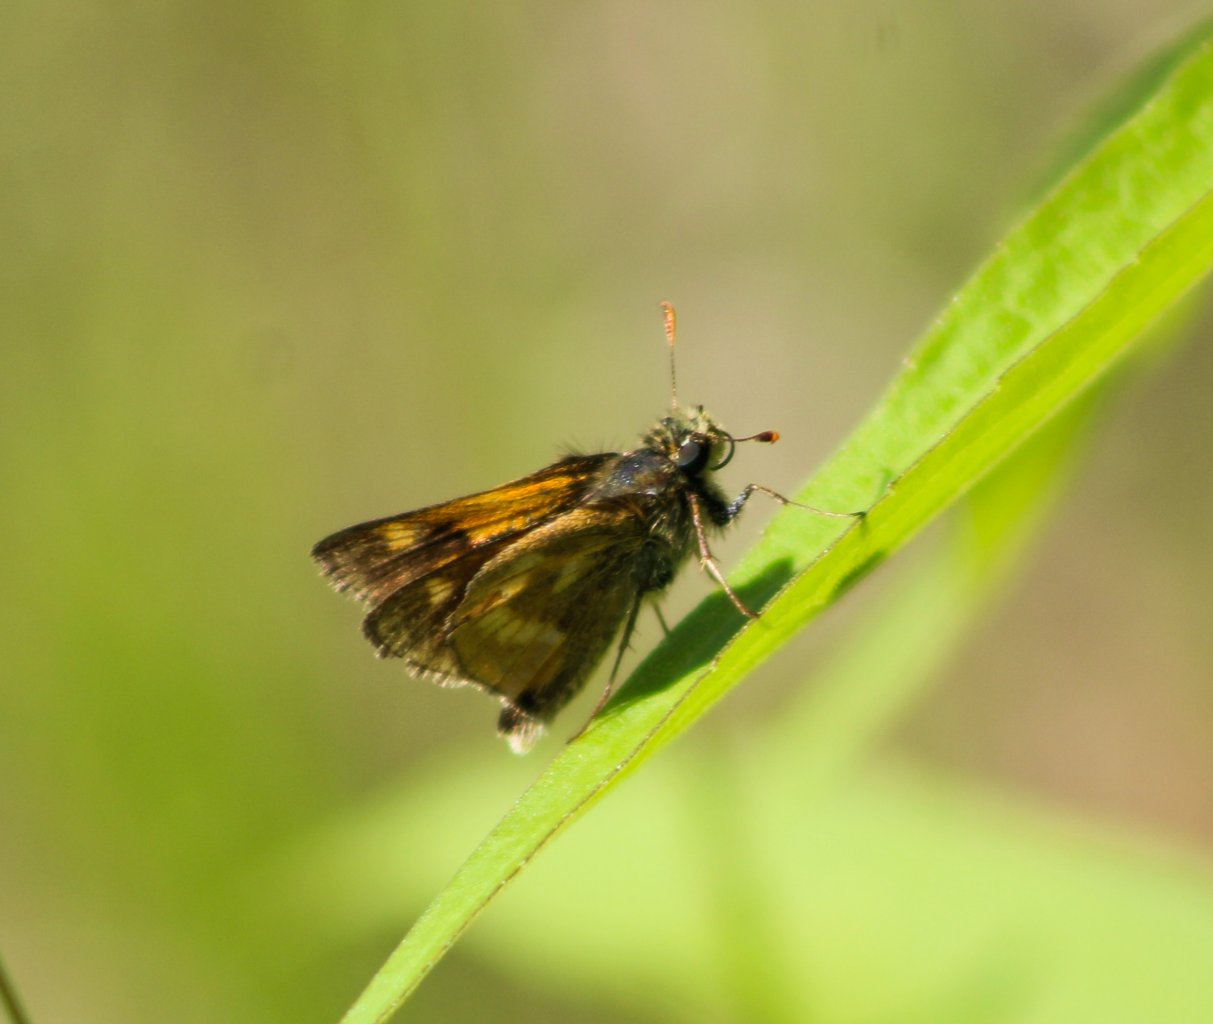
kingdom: Animalia
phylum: Arthropoda
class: Insecta
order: Lepidoptera
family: Hesperiidae
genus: Polites
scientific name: Polites
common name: Long Dash Skipper
